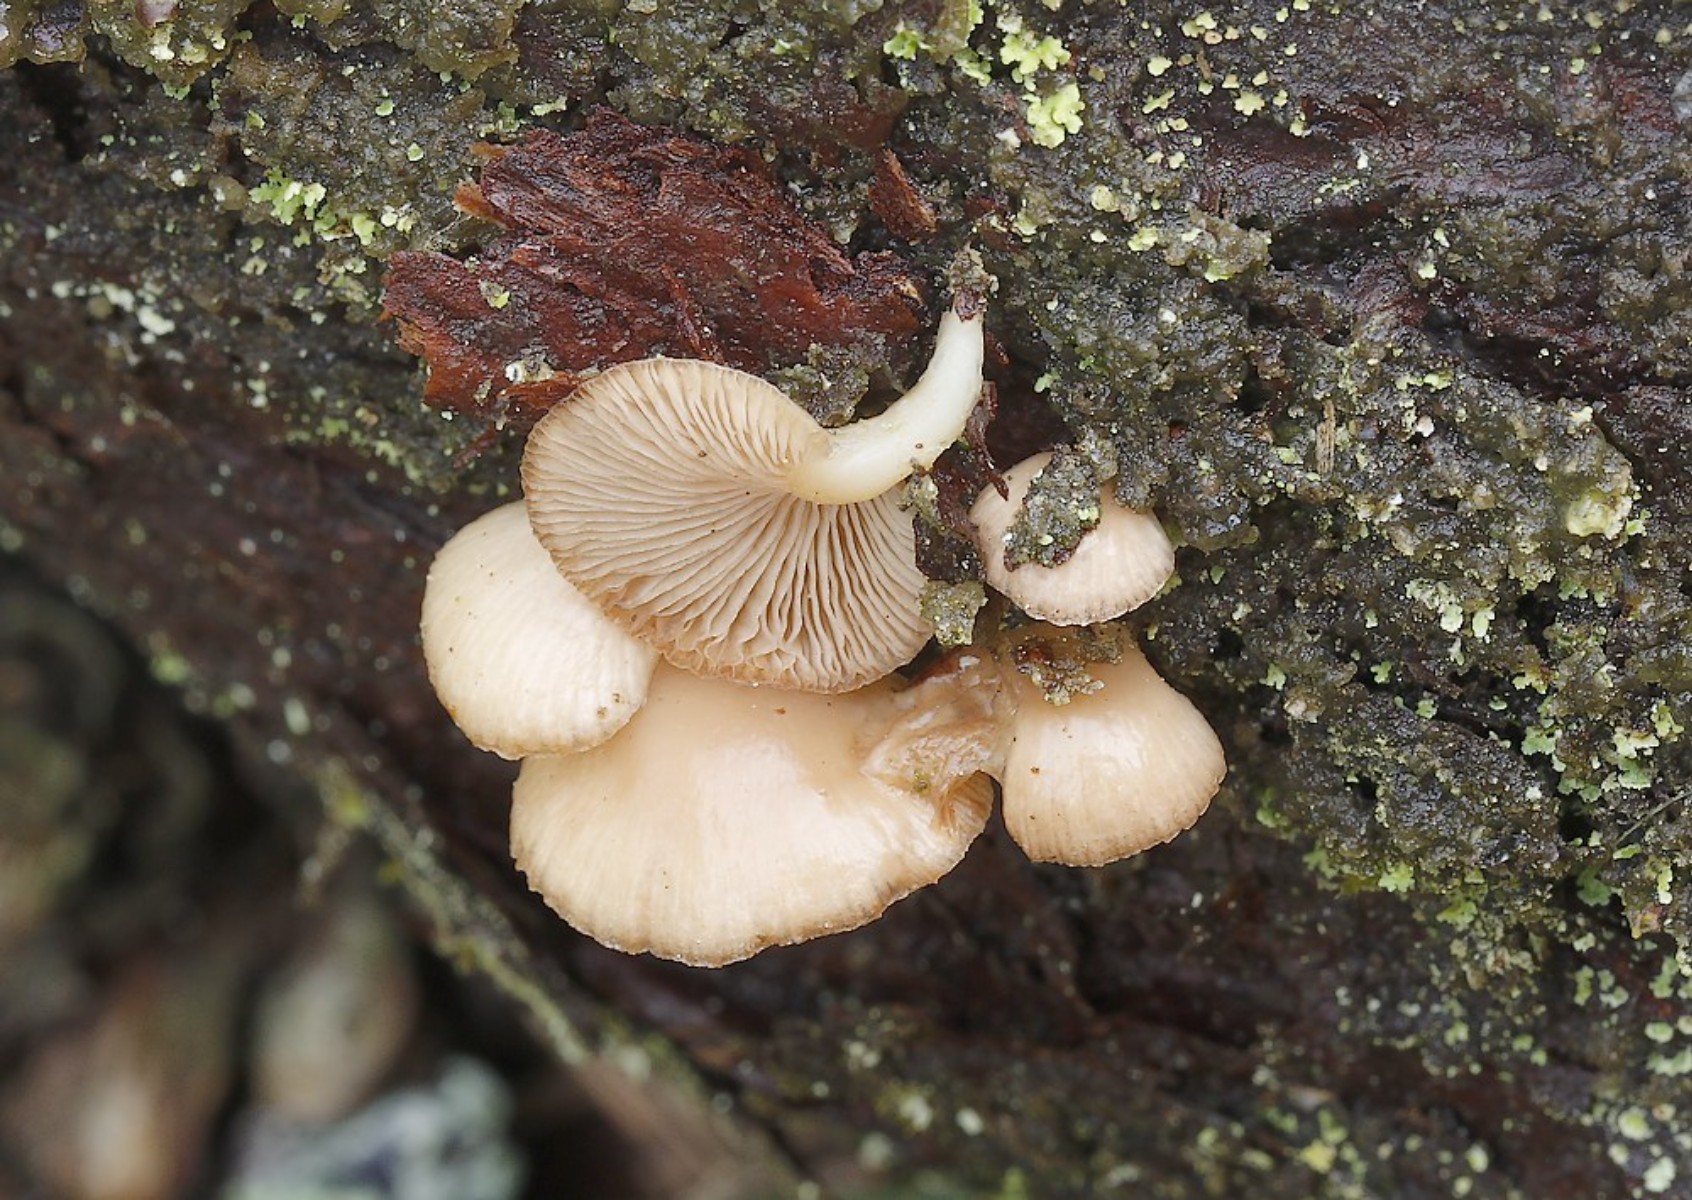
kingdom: Fungi
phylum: Basidiomycota
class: Agaricomycetes
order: Agaricales
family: Mycenaceae
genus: Panellus
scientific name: Panellus mitis
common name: mild epaulethat
